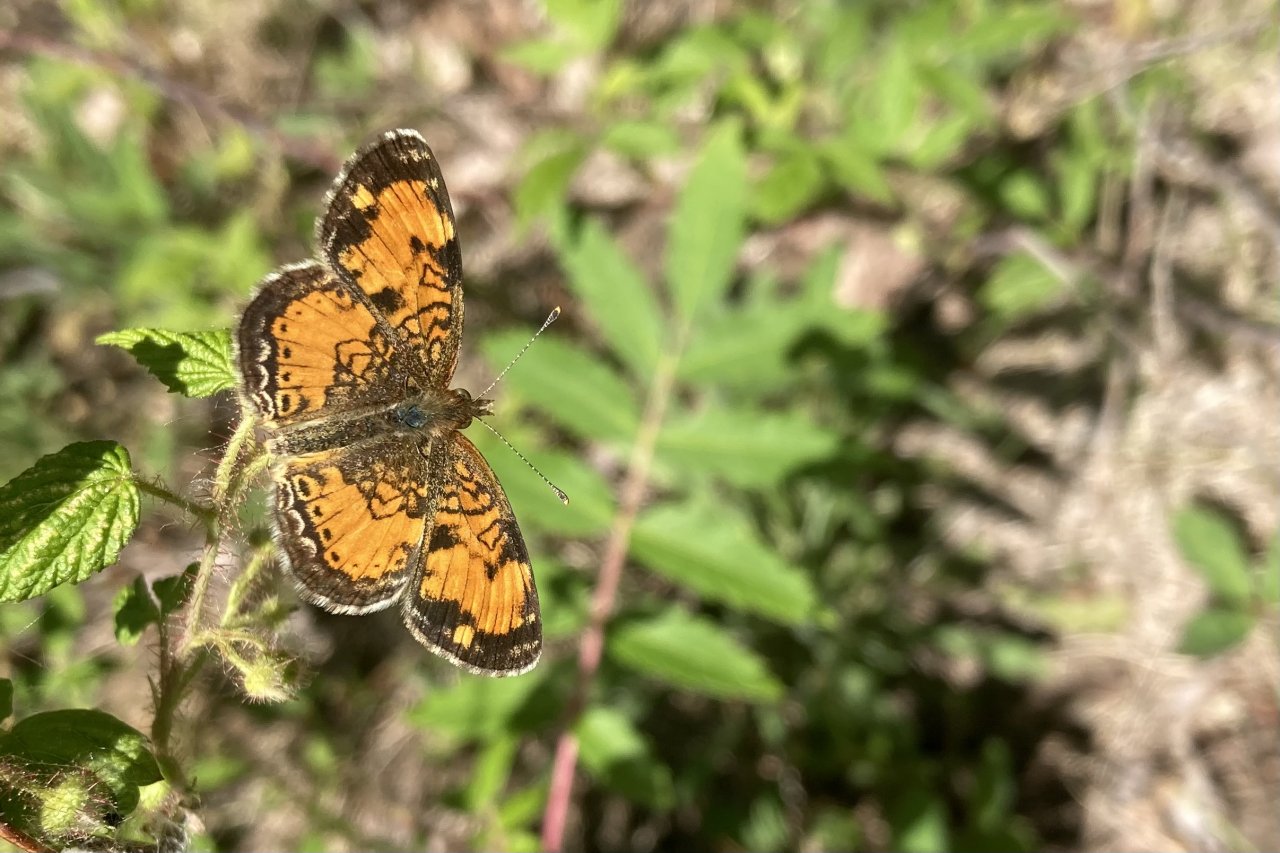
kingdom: Animalia
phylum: Arthropoda
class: Insecta
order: Lepidoptera
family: Nymphalidae
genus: Phyciodes
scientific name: Phyciodes tharos
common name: Northern Crescent
